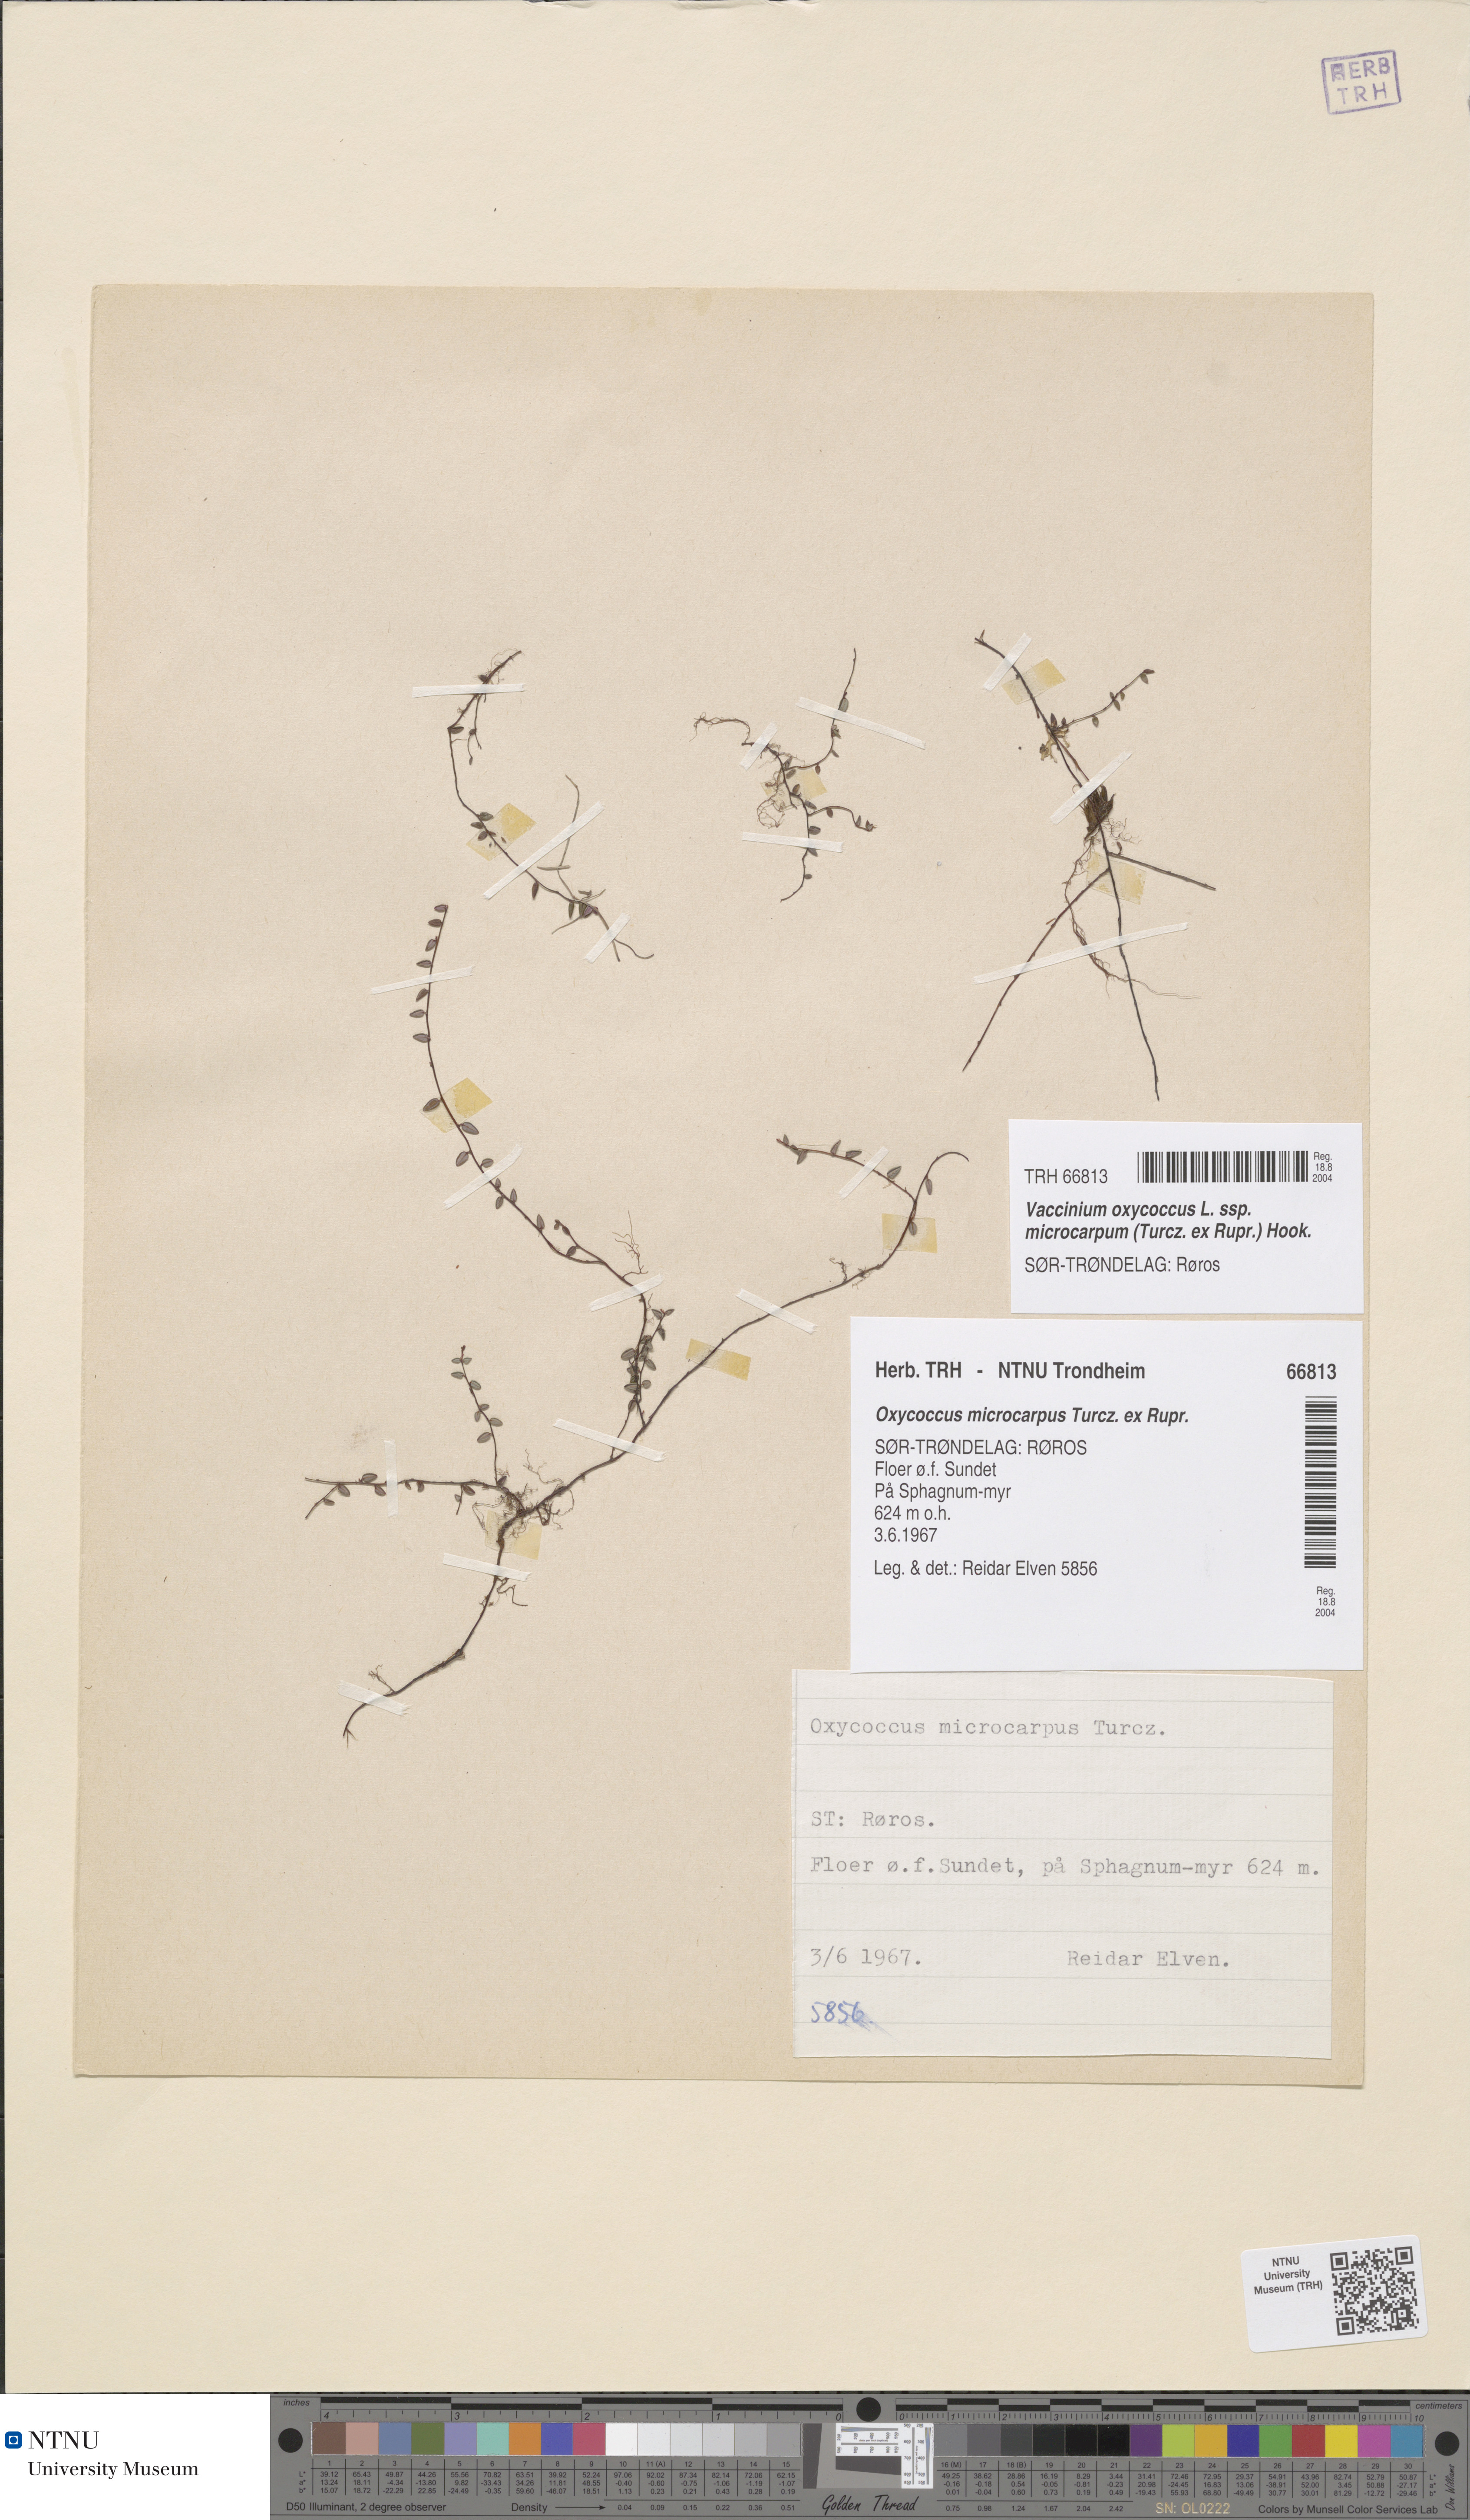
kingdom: Plantae
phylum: Tracheophyta
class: Magnoliopsida
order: Ericales
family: Ericaceae
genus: Vaccinium
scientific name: Vaccinium microcarpum
